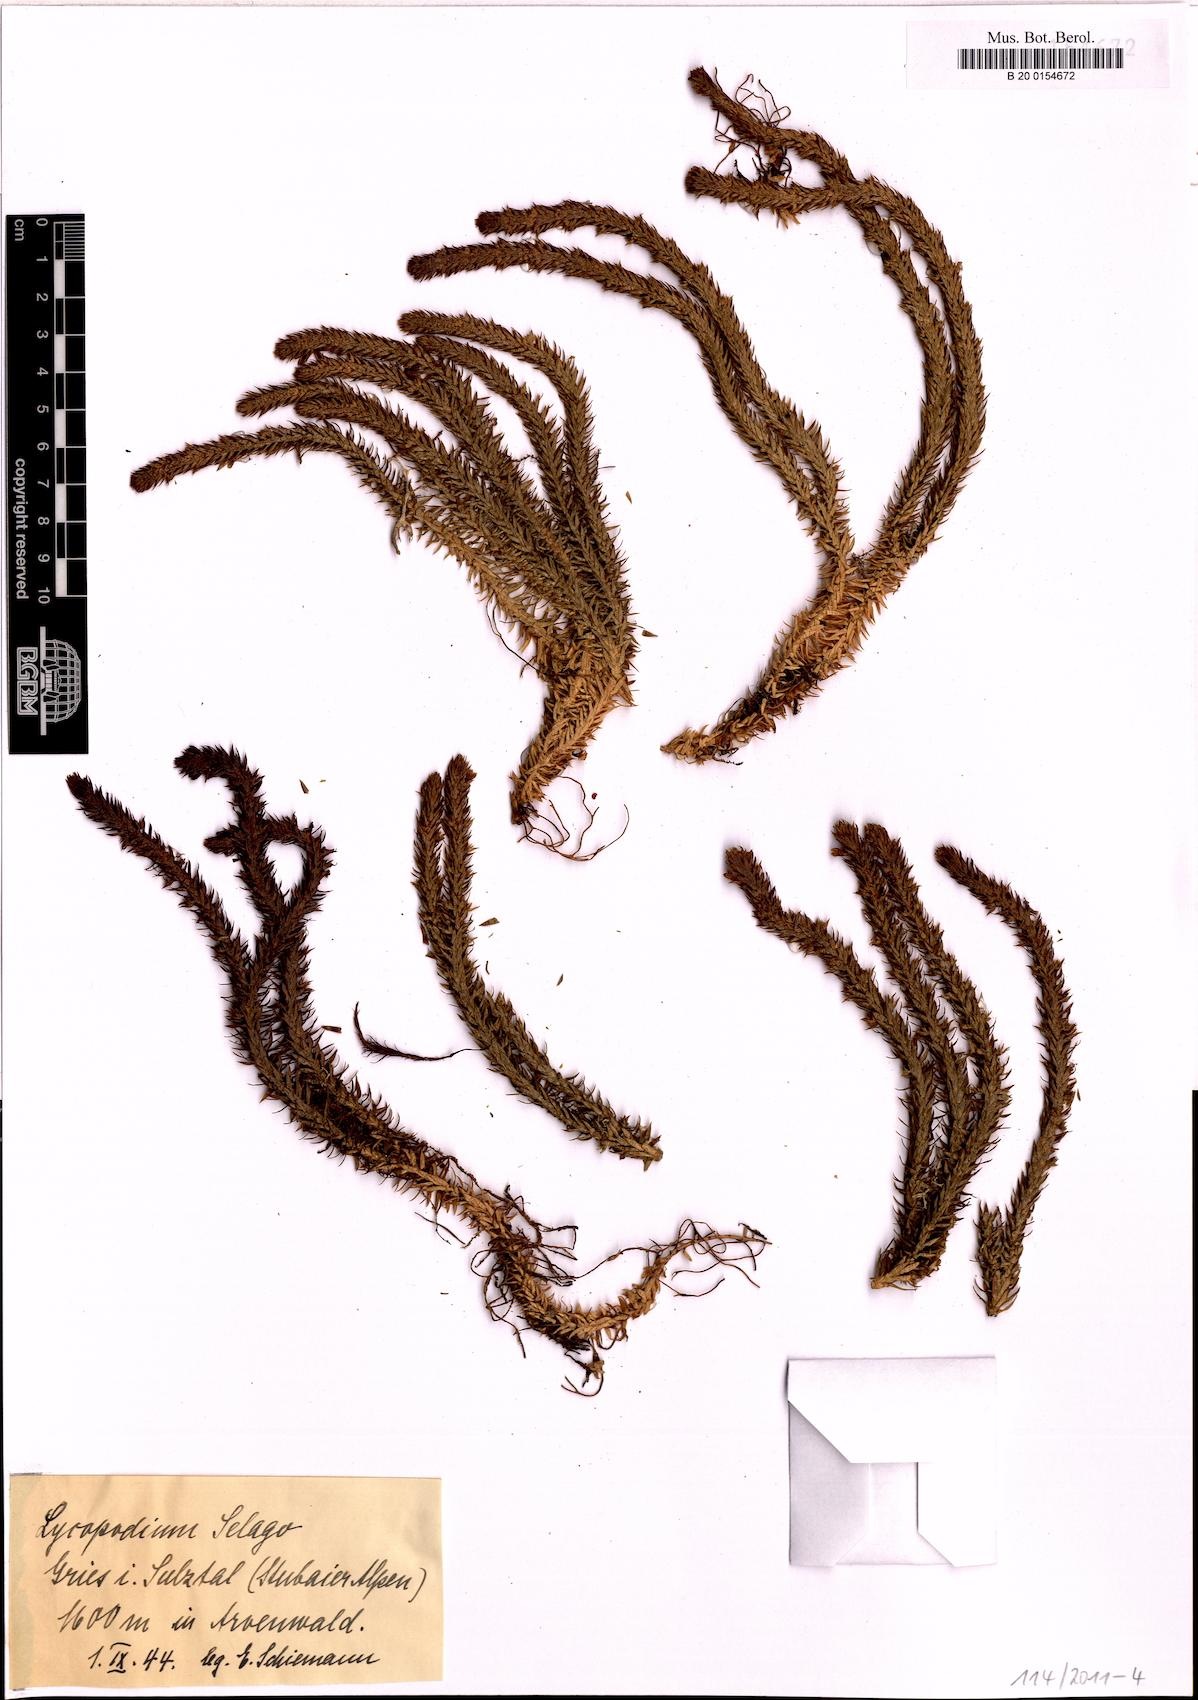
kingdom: Plantae
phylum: Tracheophyta
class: Lycopodiopsida
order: Lycopodiales
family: Lycopodiaceae
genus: Huperzia
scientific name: Huperzia selago
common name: Northern firmoss
